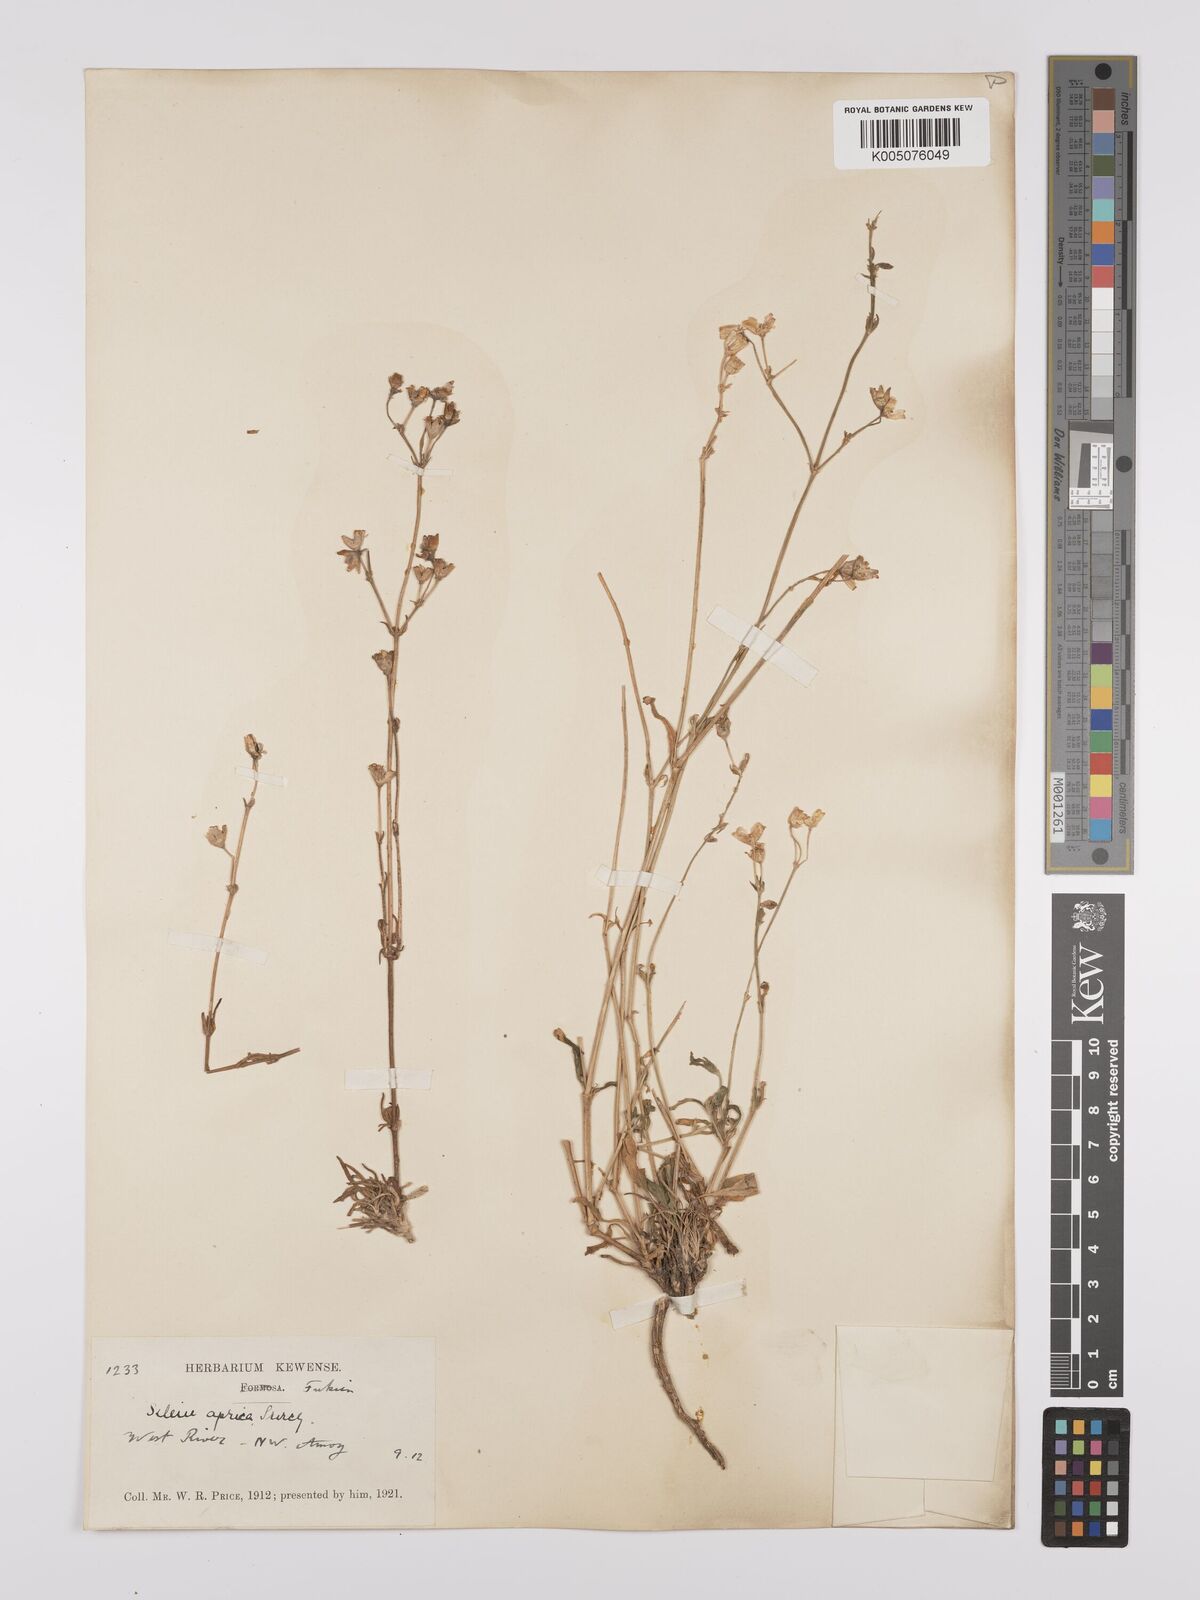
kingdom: Plantae
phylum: Tracheophyta
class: Magnoliopsida
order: Caryophyllales
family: Caryophyllaceae
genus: Silene
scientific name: Silene aprica
